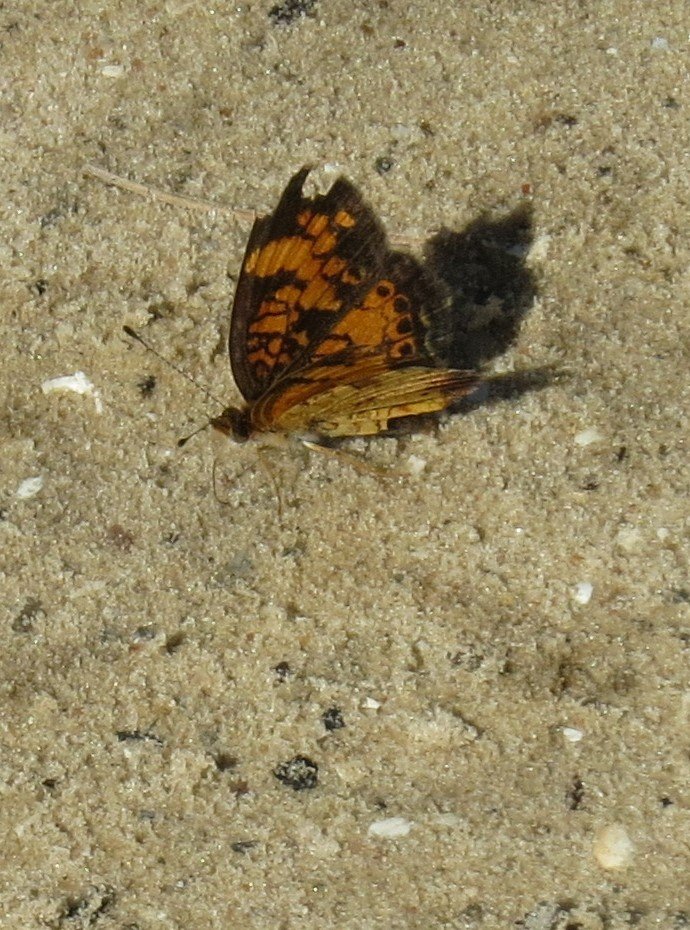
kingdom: Animalia
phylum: Arthropoda
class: Insecta
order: Lepidoptera
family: Nymphalidae
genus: Phyciodes
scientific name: Phyciodes tharos
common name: Pearl Crescent
